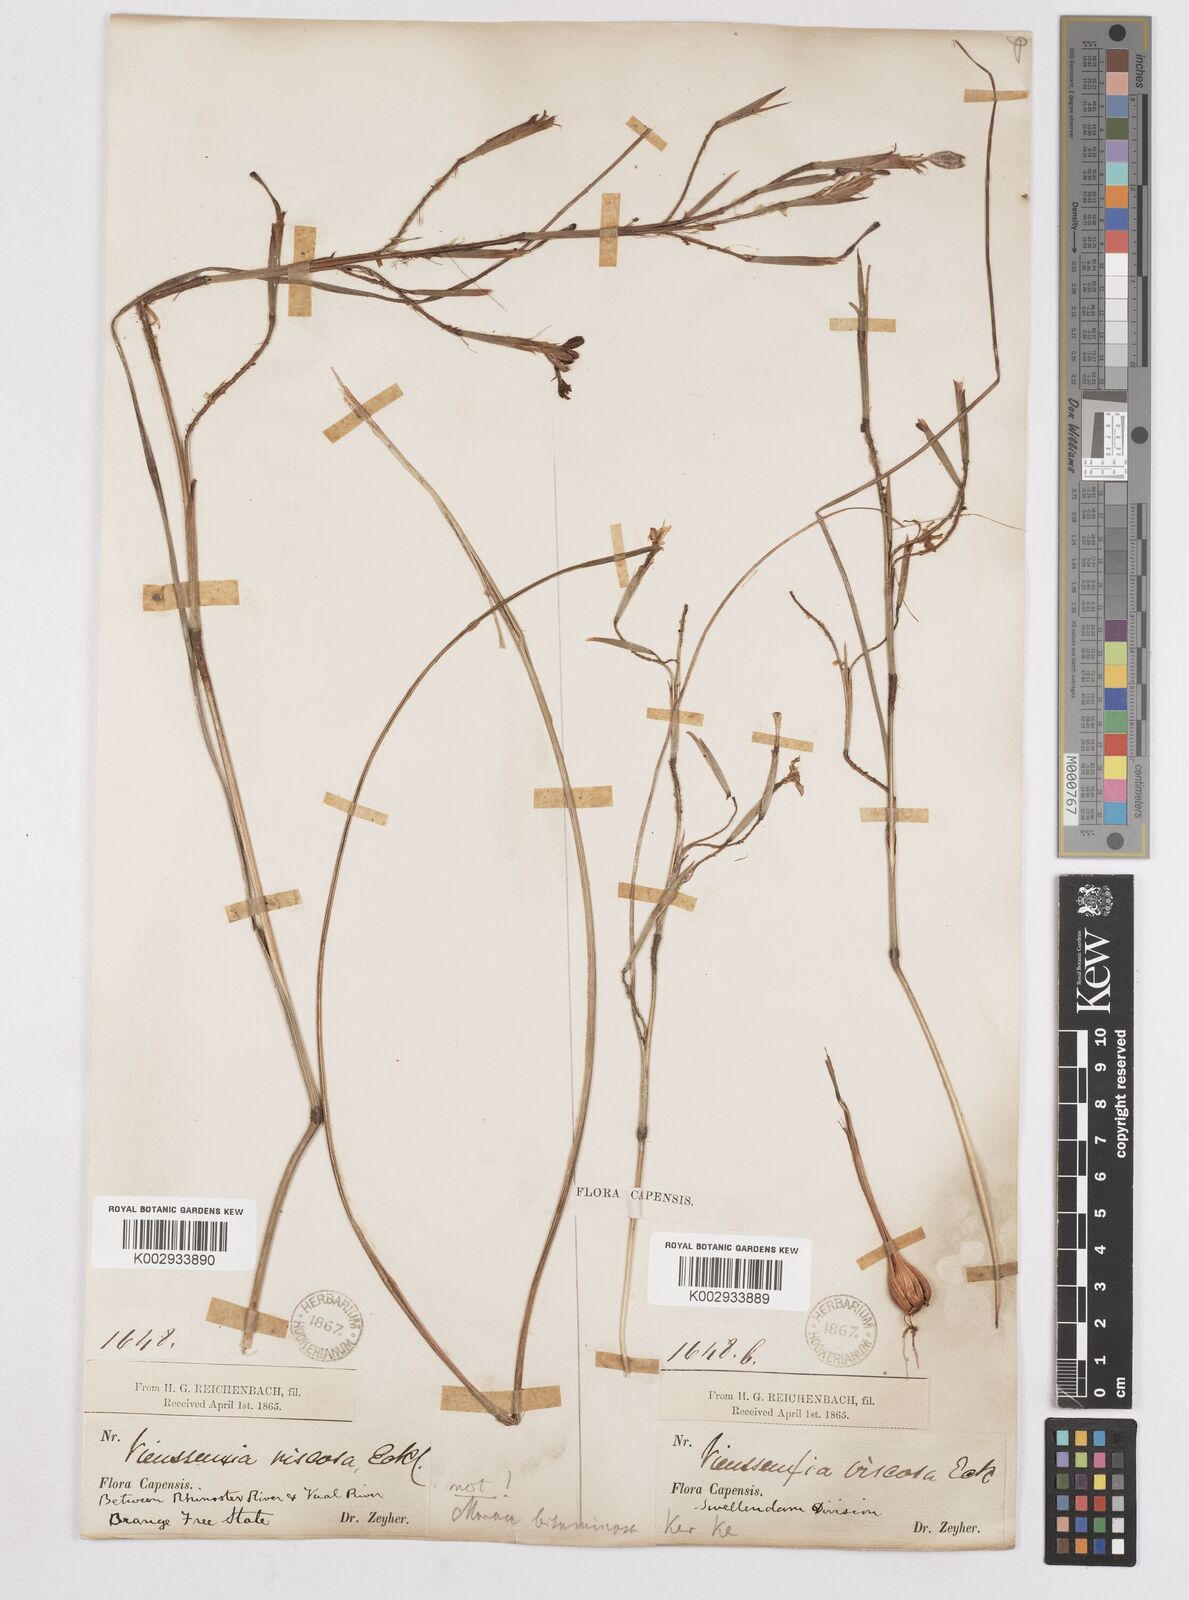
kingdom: Plantae
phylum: Tracheophyta
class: Liliopsida
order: Asparagales
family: Iridaceae
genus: Moraea
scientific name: Moraea viscaria
